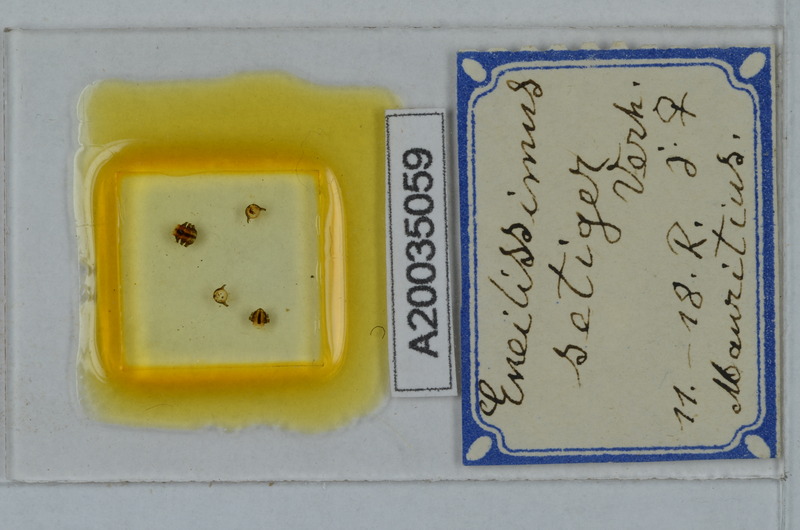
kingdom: Animalia
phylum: Arthropoda
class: Diplopoda
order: Polydesmida
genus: Eneillissomus
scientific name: Eneillissomus setiger
